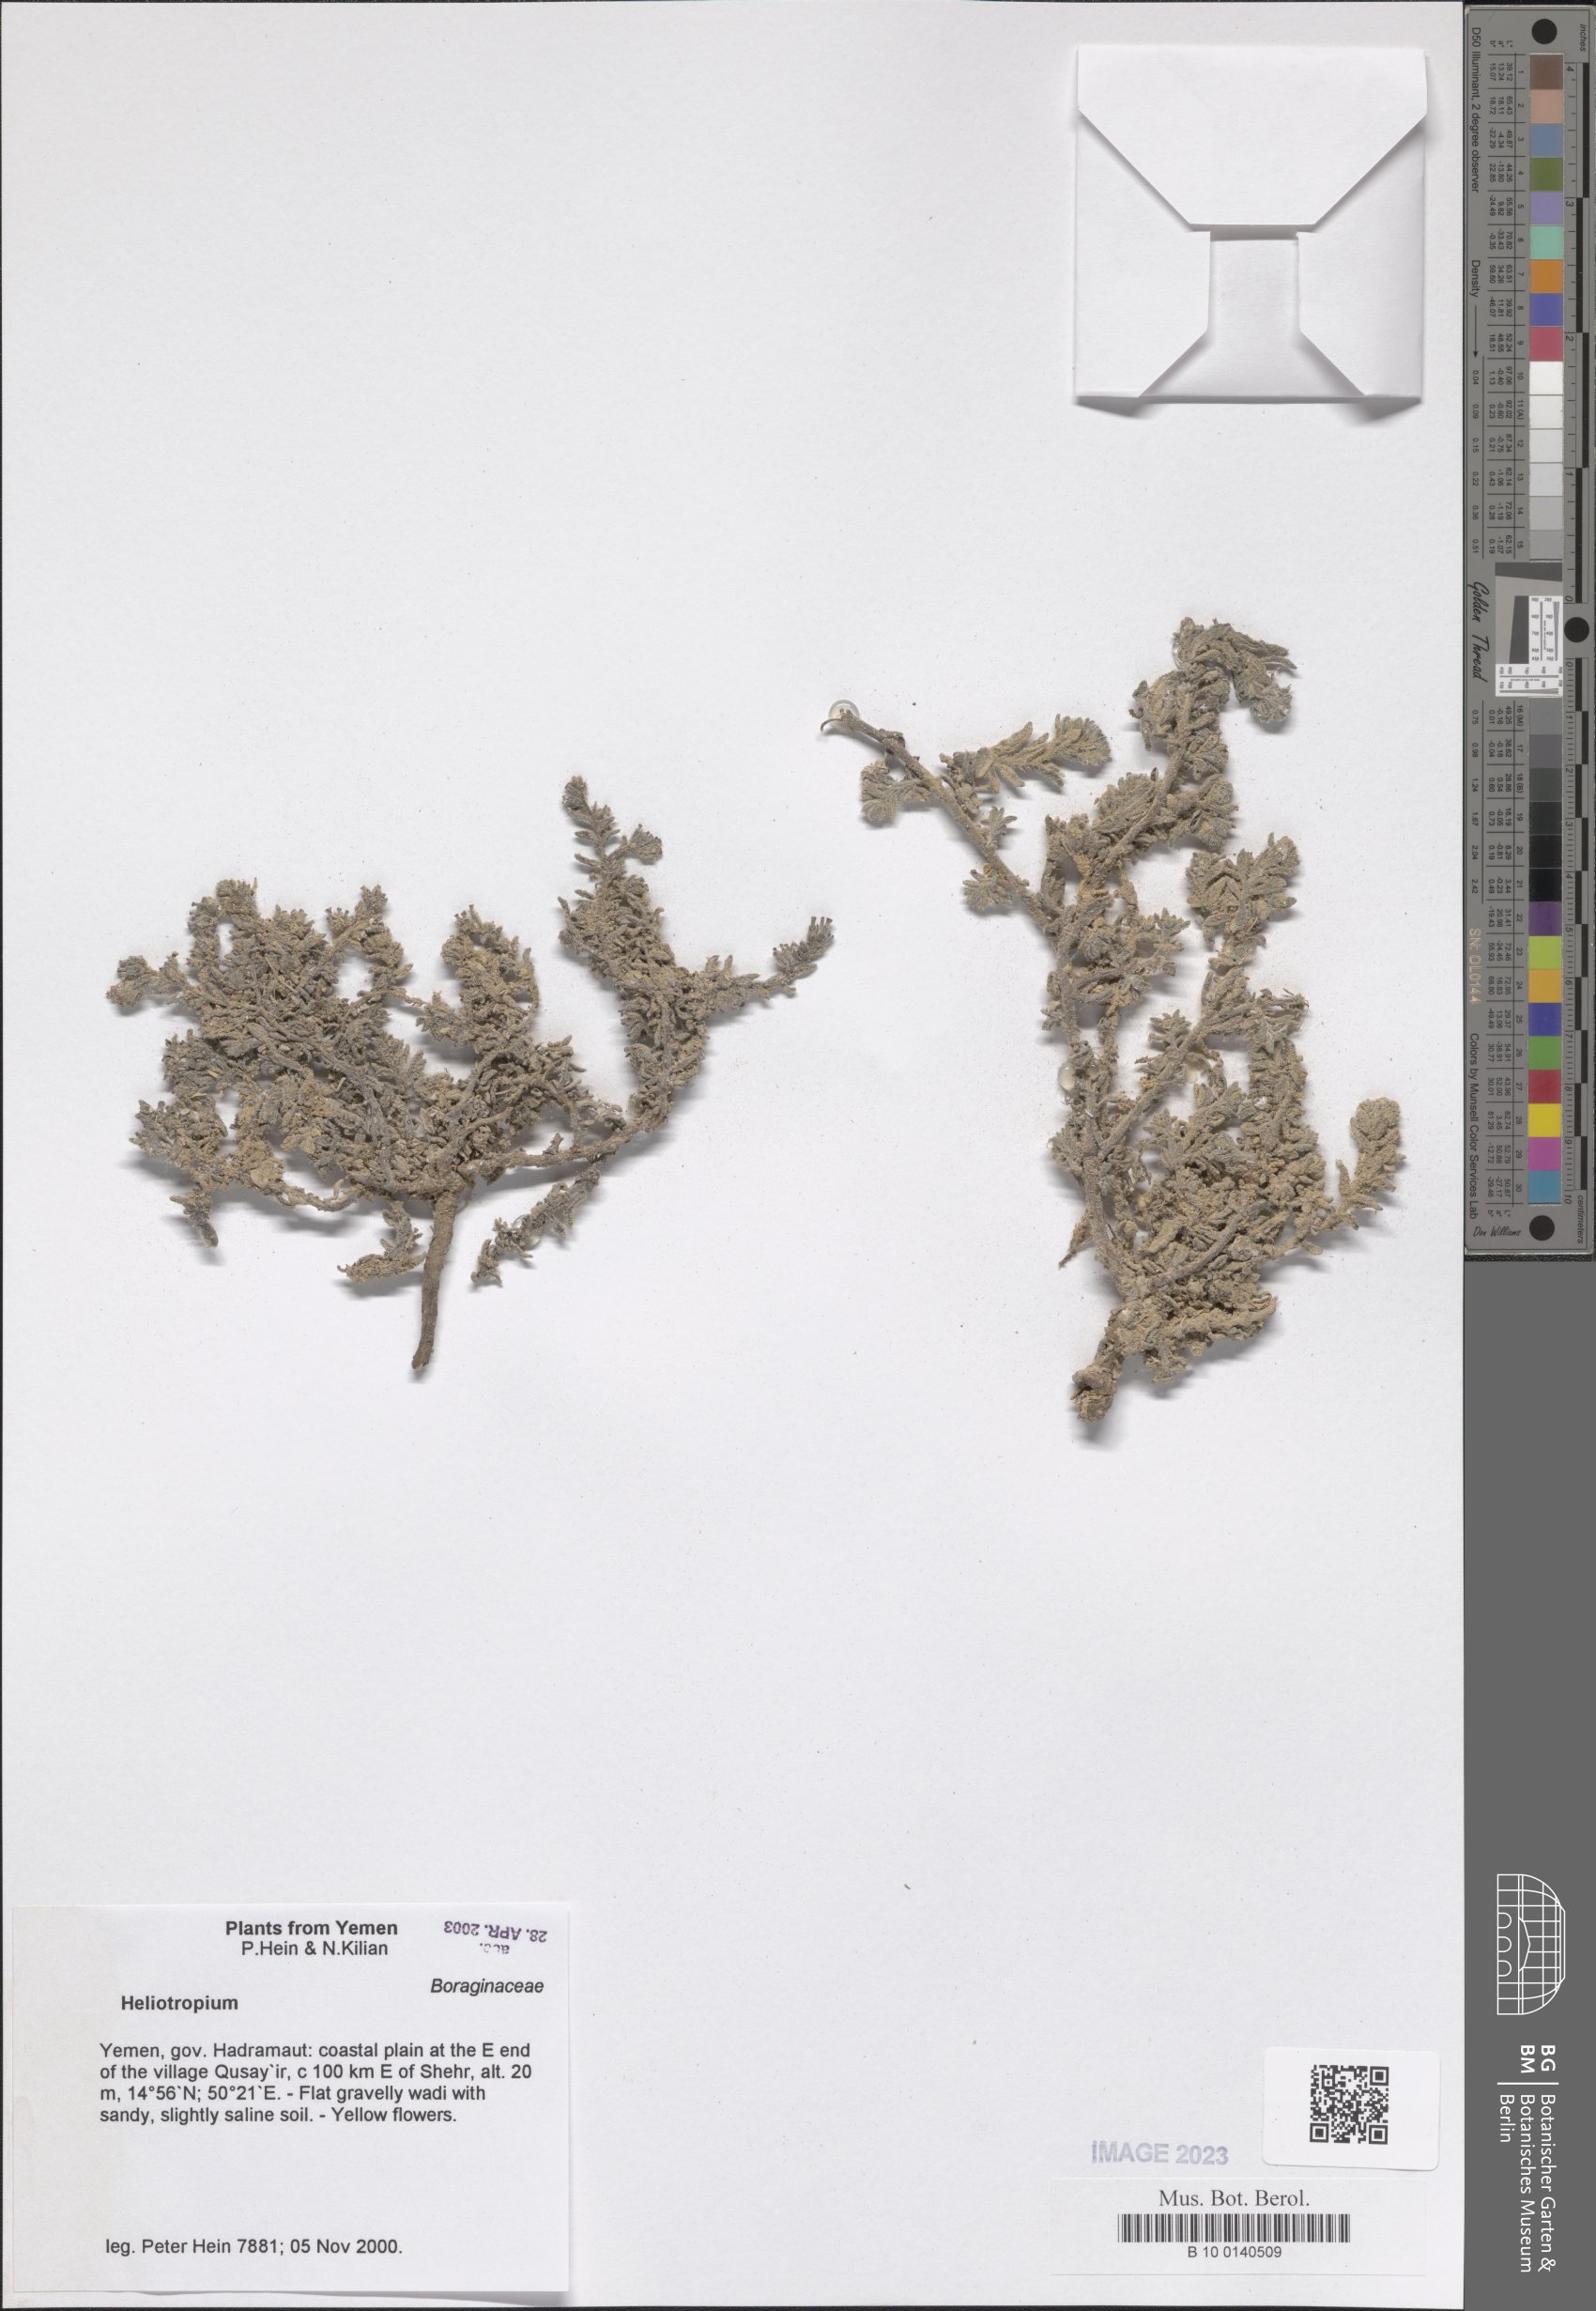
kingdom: Plantae
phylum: Tracheophyta
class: Magnoliopsida
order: Boraginales
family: Heliotropiaceae
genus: Heliotropium
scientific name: Heliotropium
